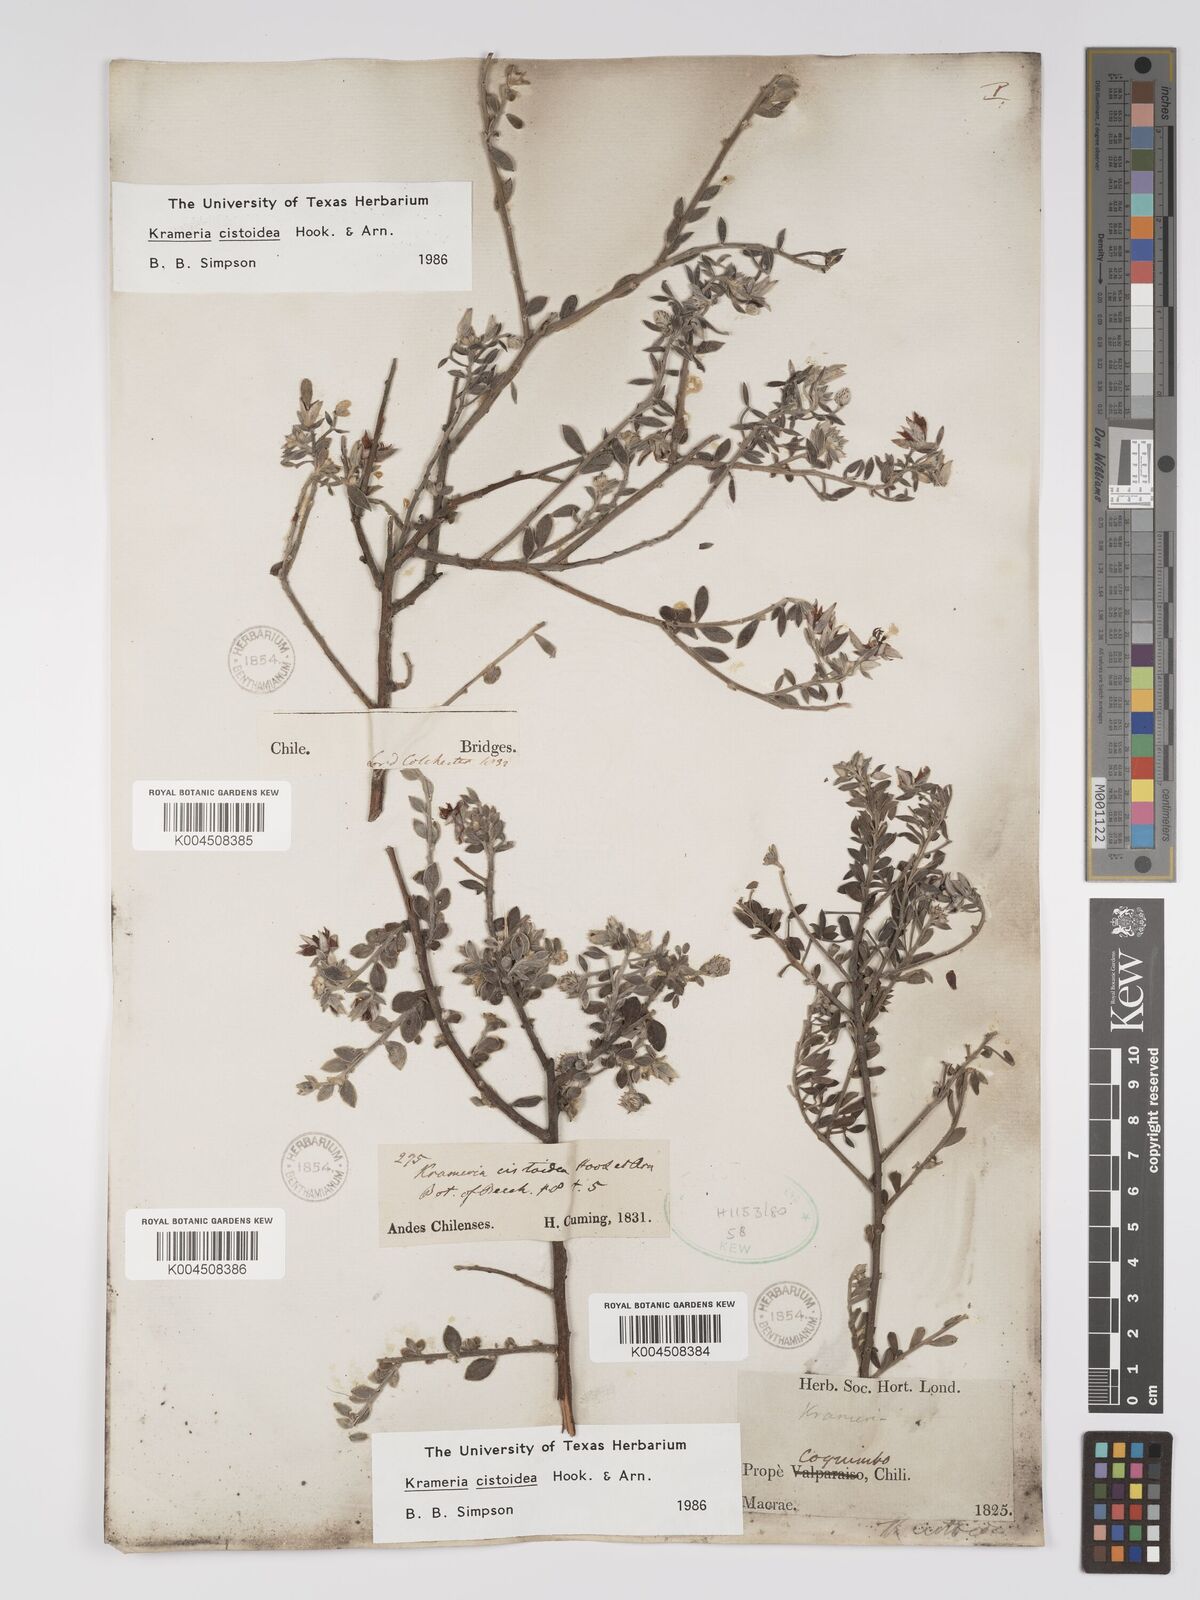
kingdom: Plantae
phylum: Tracheophyta
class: Magnoliopsida
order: Zygophyllales
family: Krameriaceae
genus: Krameria
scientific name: Krameria cistoidea
